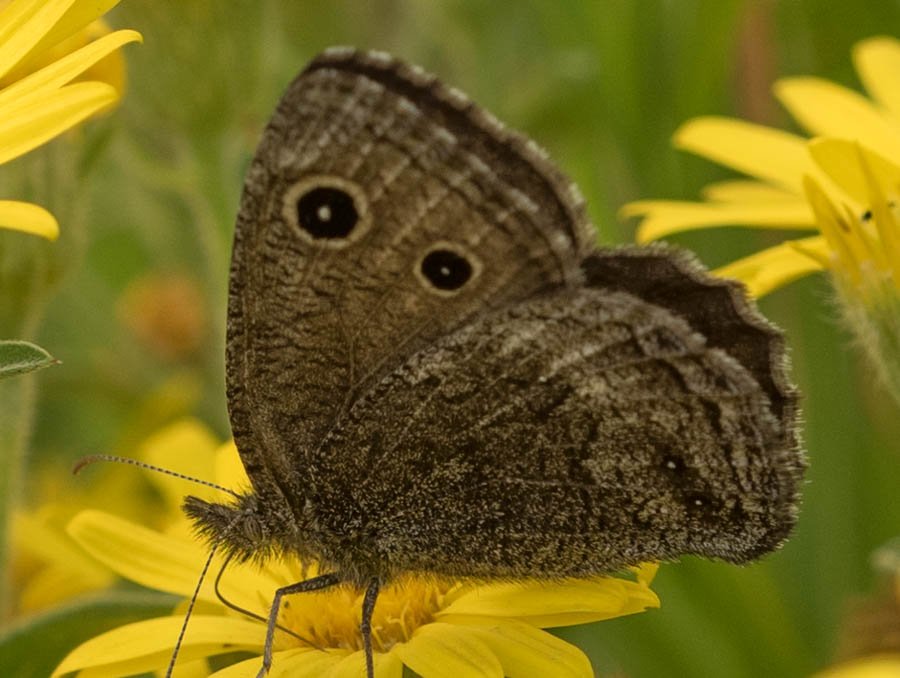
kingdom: Animalia
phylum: Arthropoda
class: Insecta
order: Lepidoptera
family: Nymphalidae
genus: Cercyonis
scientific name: Cercyonis oetus
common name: Small Wood-Nymph
